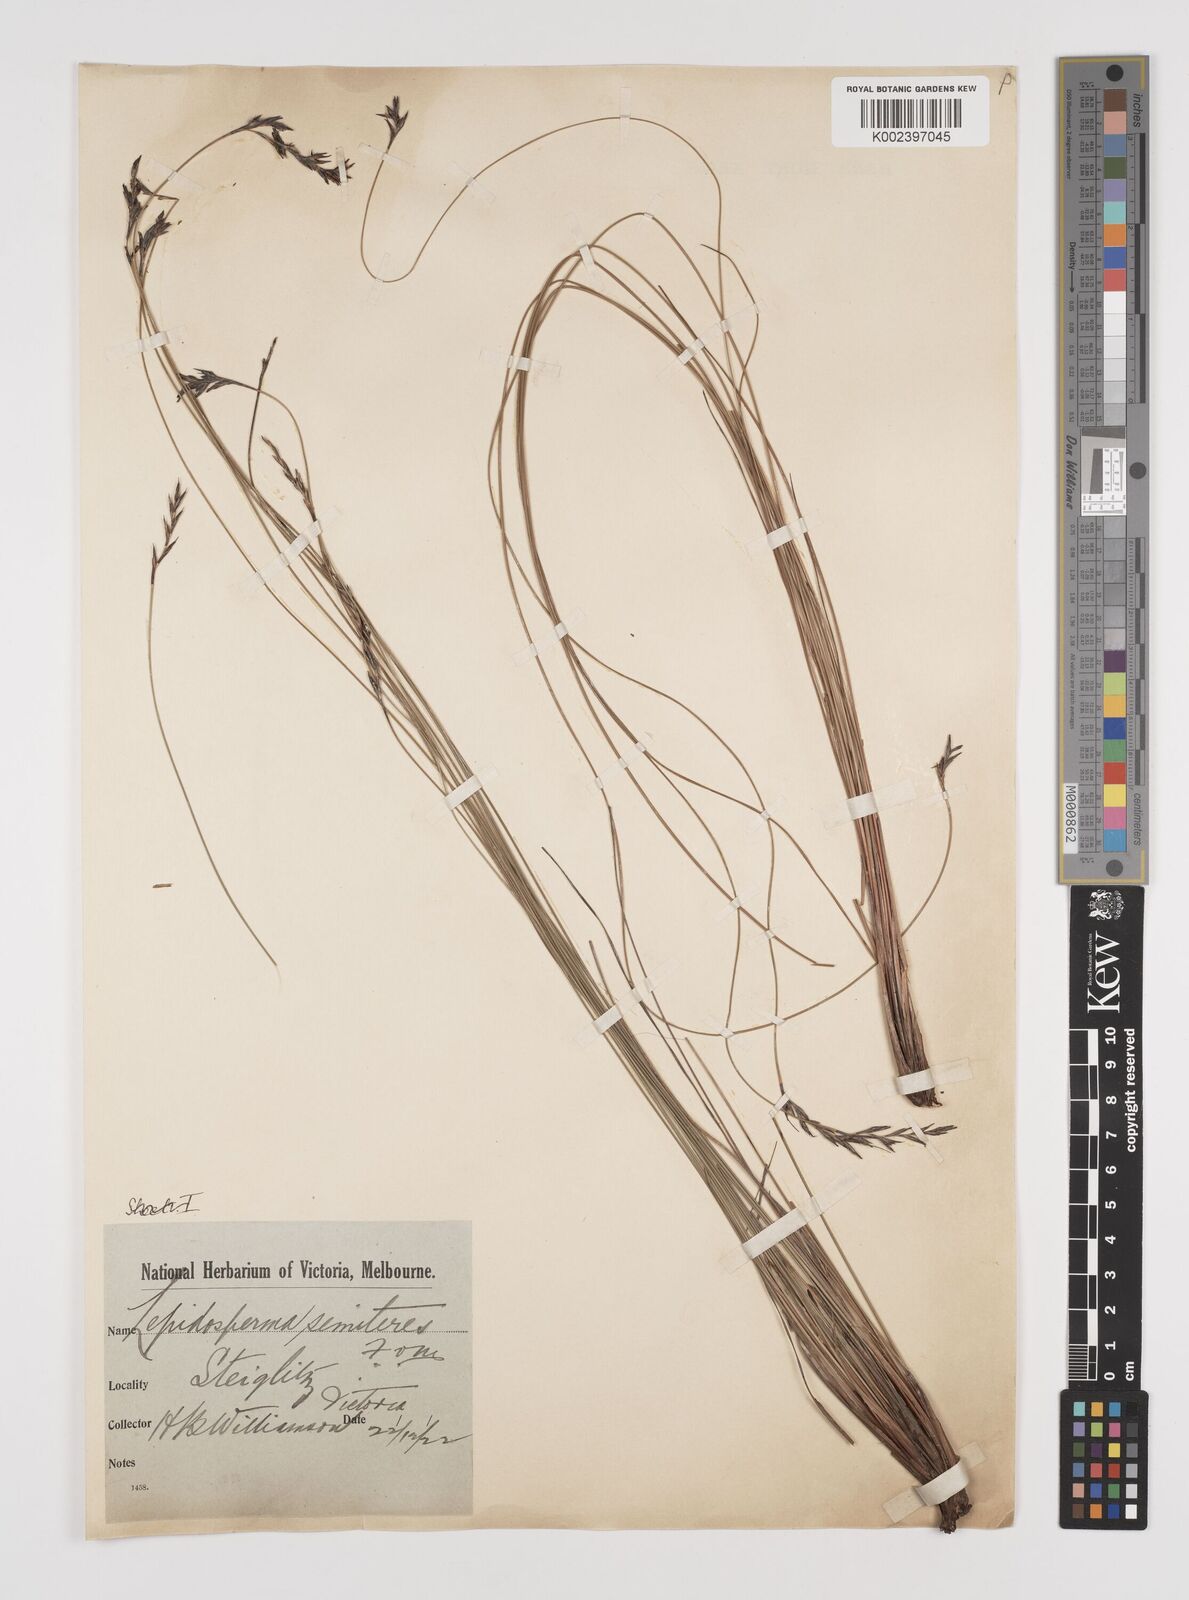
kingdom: Plantae
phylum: Tracheophyta
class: Liliopsida
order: Poales
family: Cyperaceae
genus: Lepidosperma
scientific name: Lepidosperma semiteres
